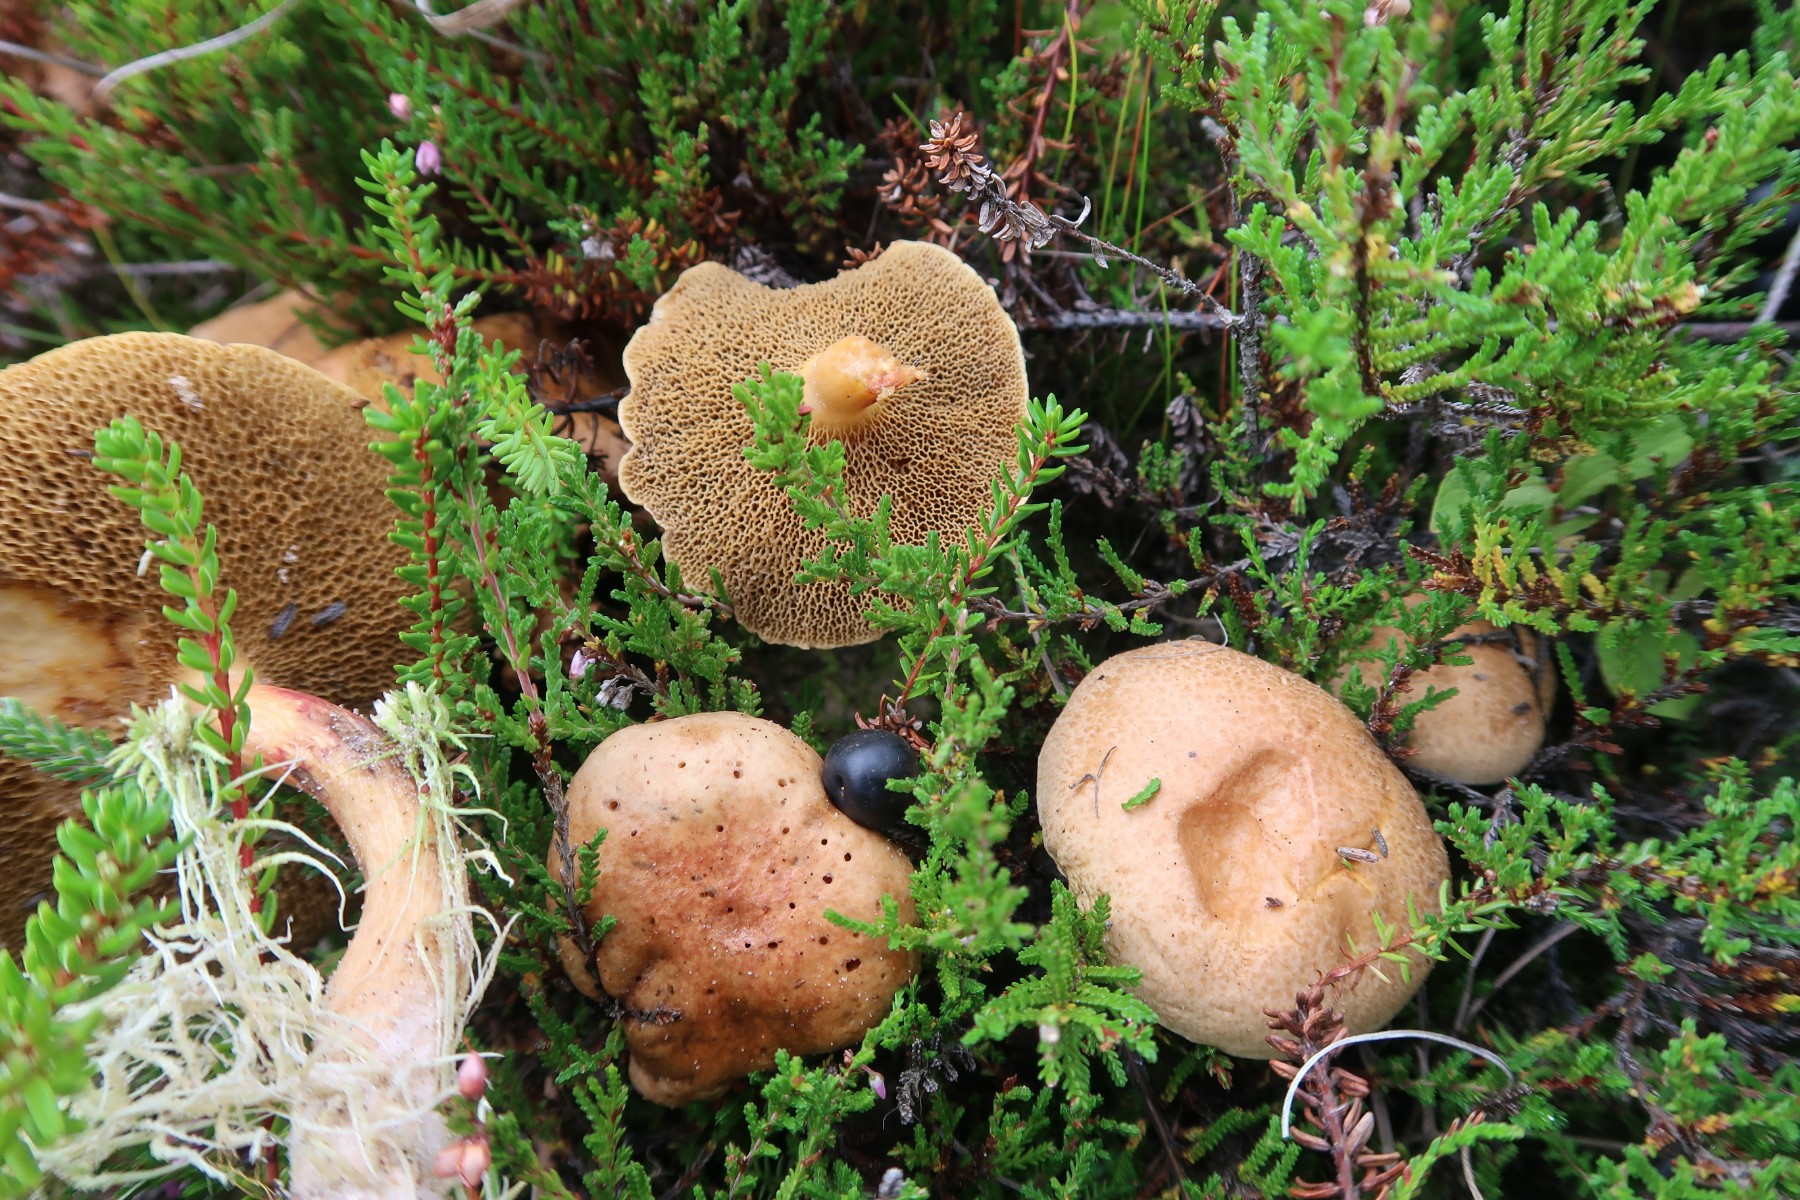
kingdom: Fungi
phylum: Basidiomycota
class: Agaricomycetes
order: Boletales
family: Suillaceae
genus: Suillus
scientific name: Suillus bovinus
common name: grovporet slimrørhat
